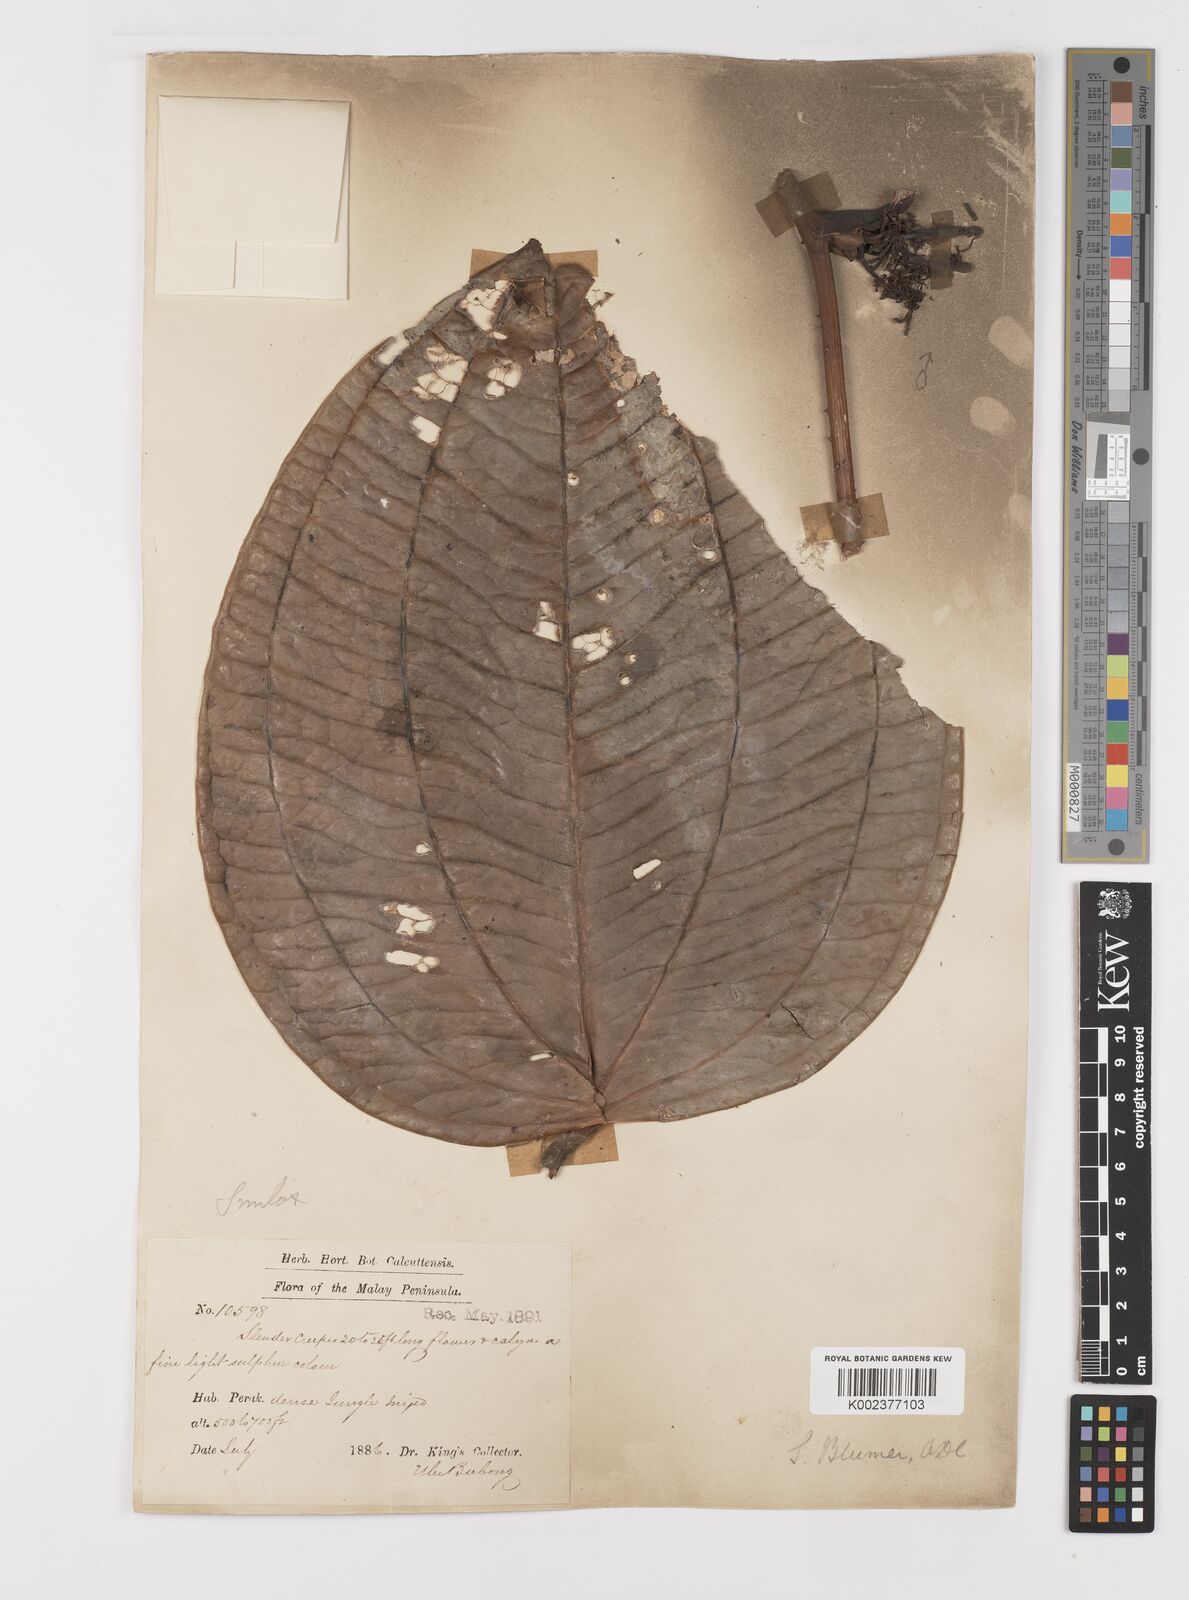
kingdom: Plantae
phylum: Tracheophyta
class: Liliopsida
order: Liliales
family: Smilacaceae
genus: Smilax
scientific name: Smilax blumei
